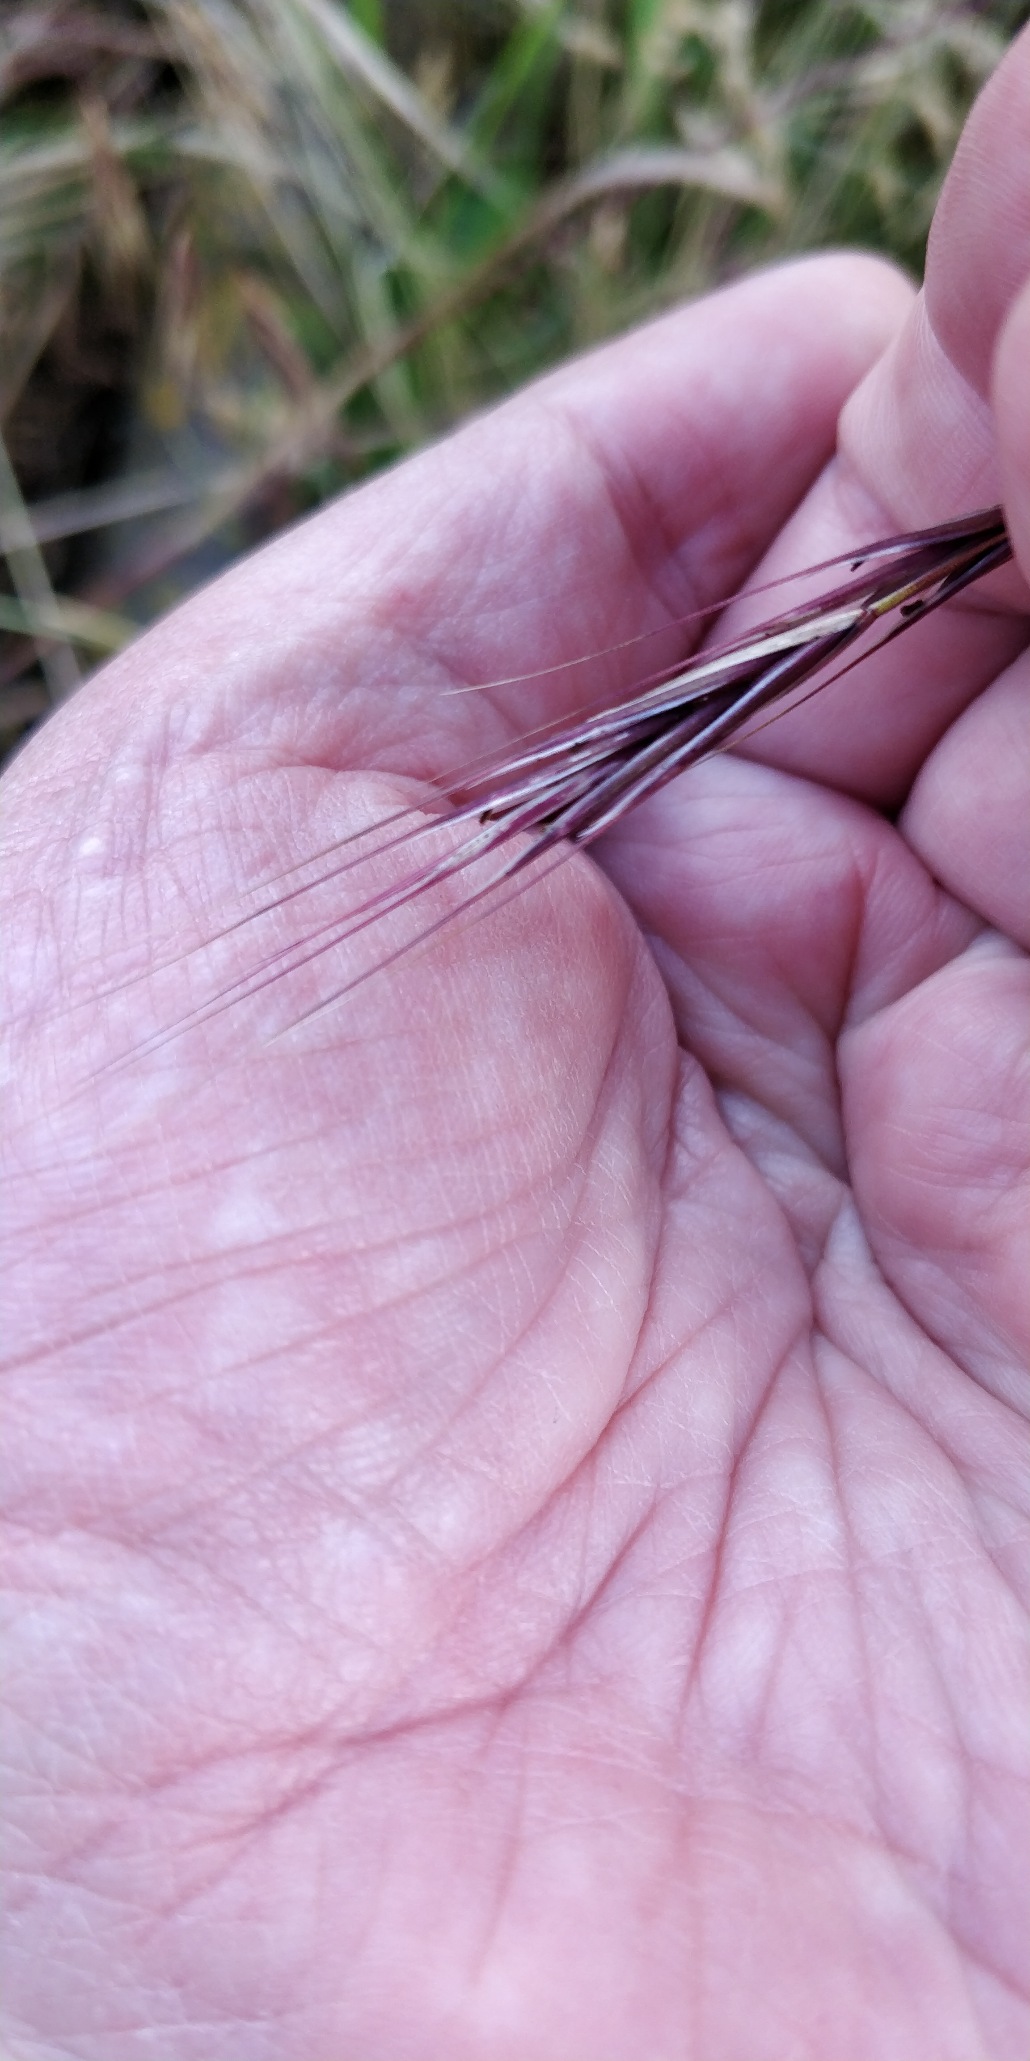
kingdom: Plantae
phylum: Tracheophyta
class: Liliopsida
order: Poales
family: Poaceae
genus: Bromus
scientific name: Bromus sterilis
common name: Gold hejre
